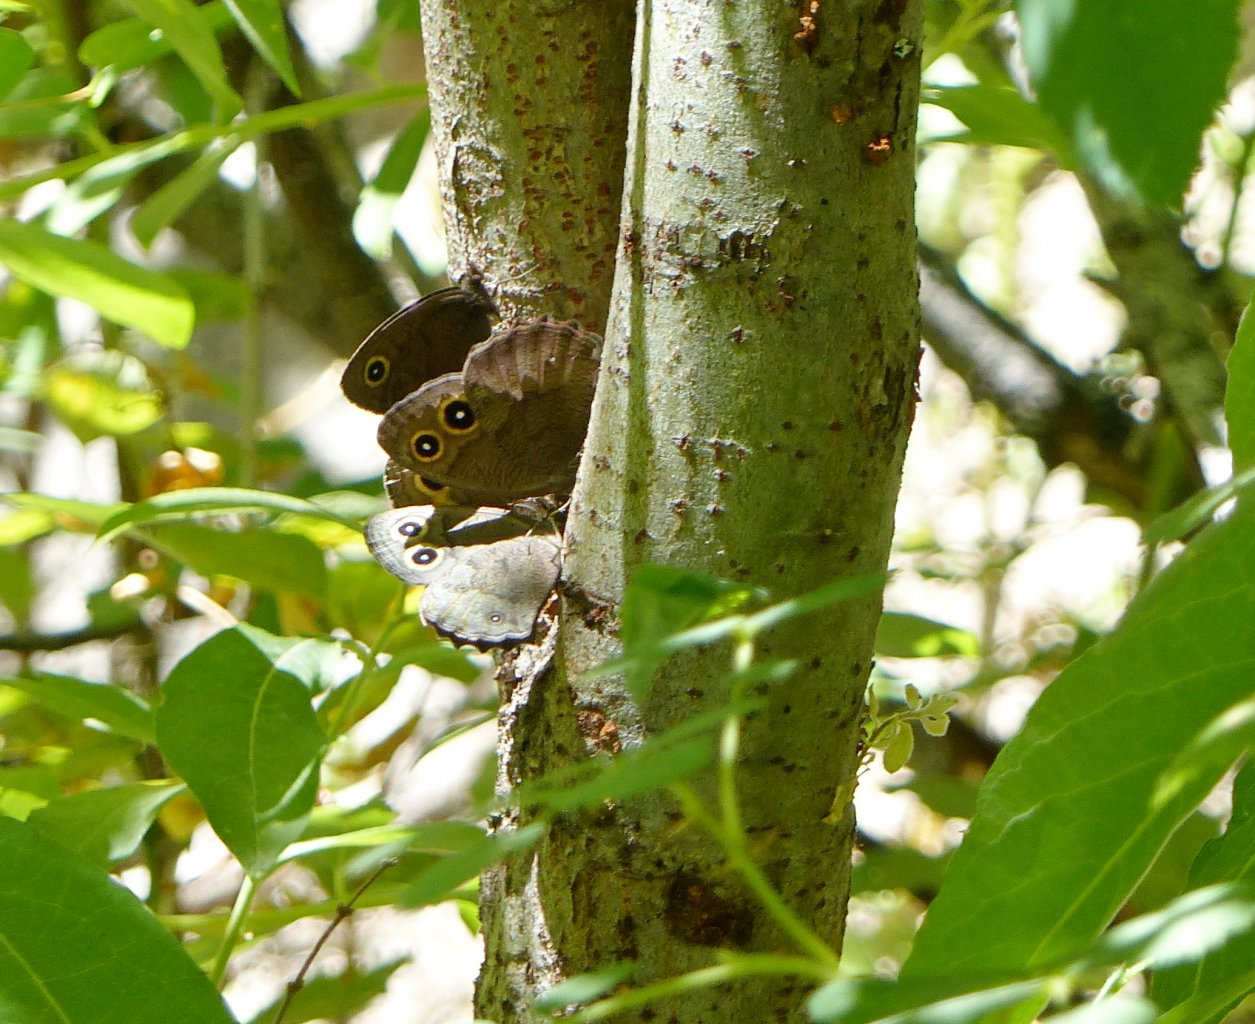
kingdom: Animalia
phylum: Arthropoda
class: Insecta
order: Lepidoptera
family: Nymphalidae
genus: Cercyonis
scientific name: Cercyonis pegala
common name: Common Wood-Nymph
